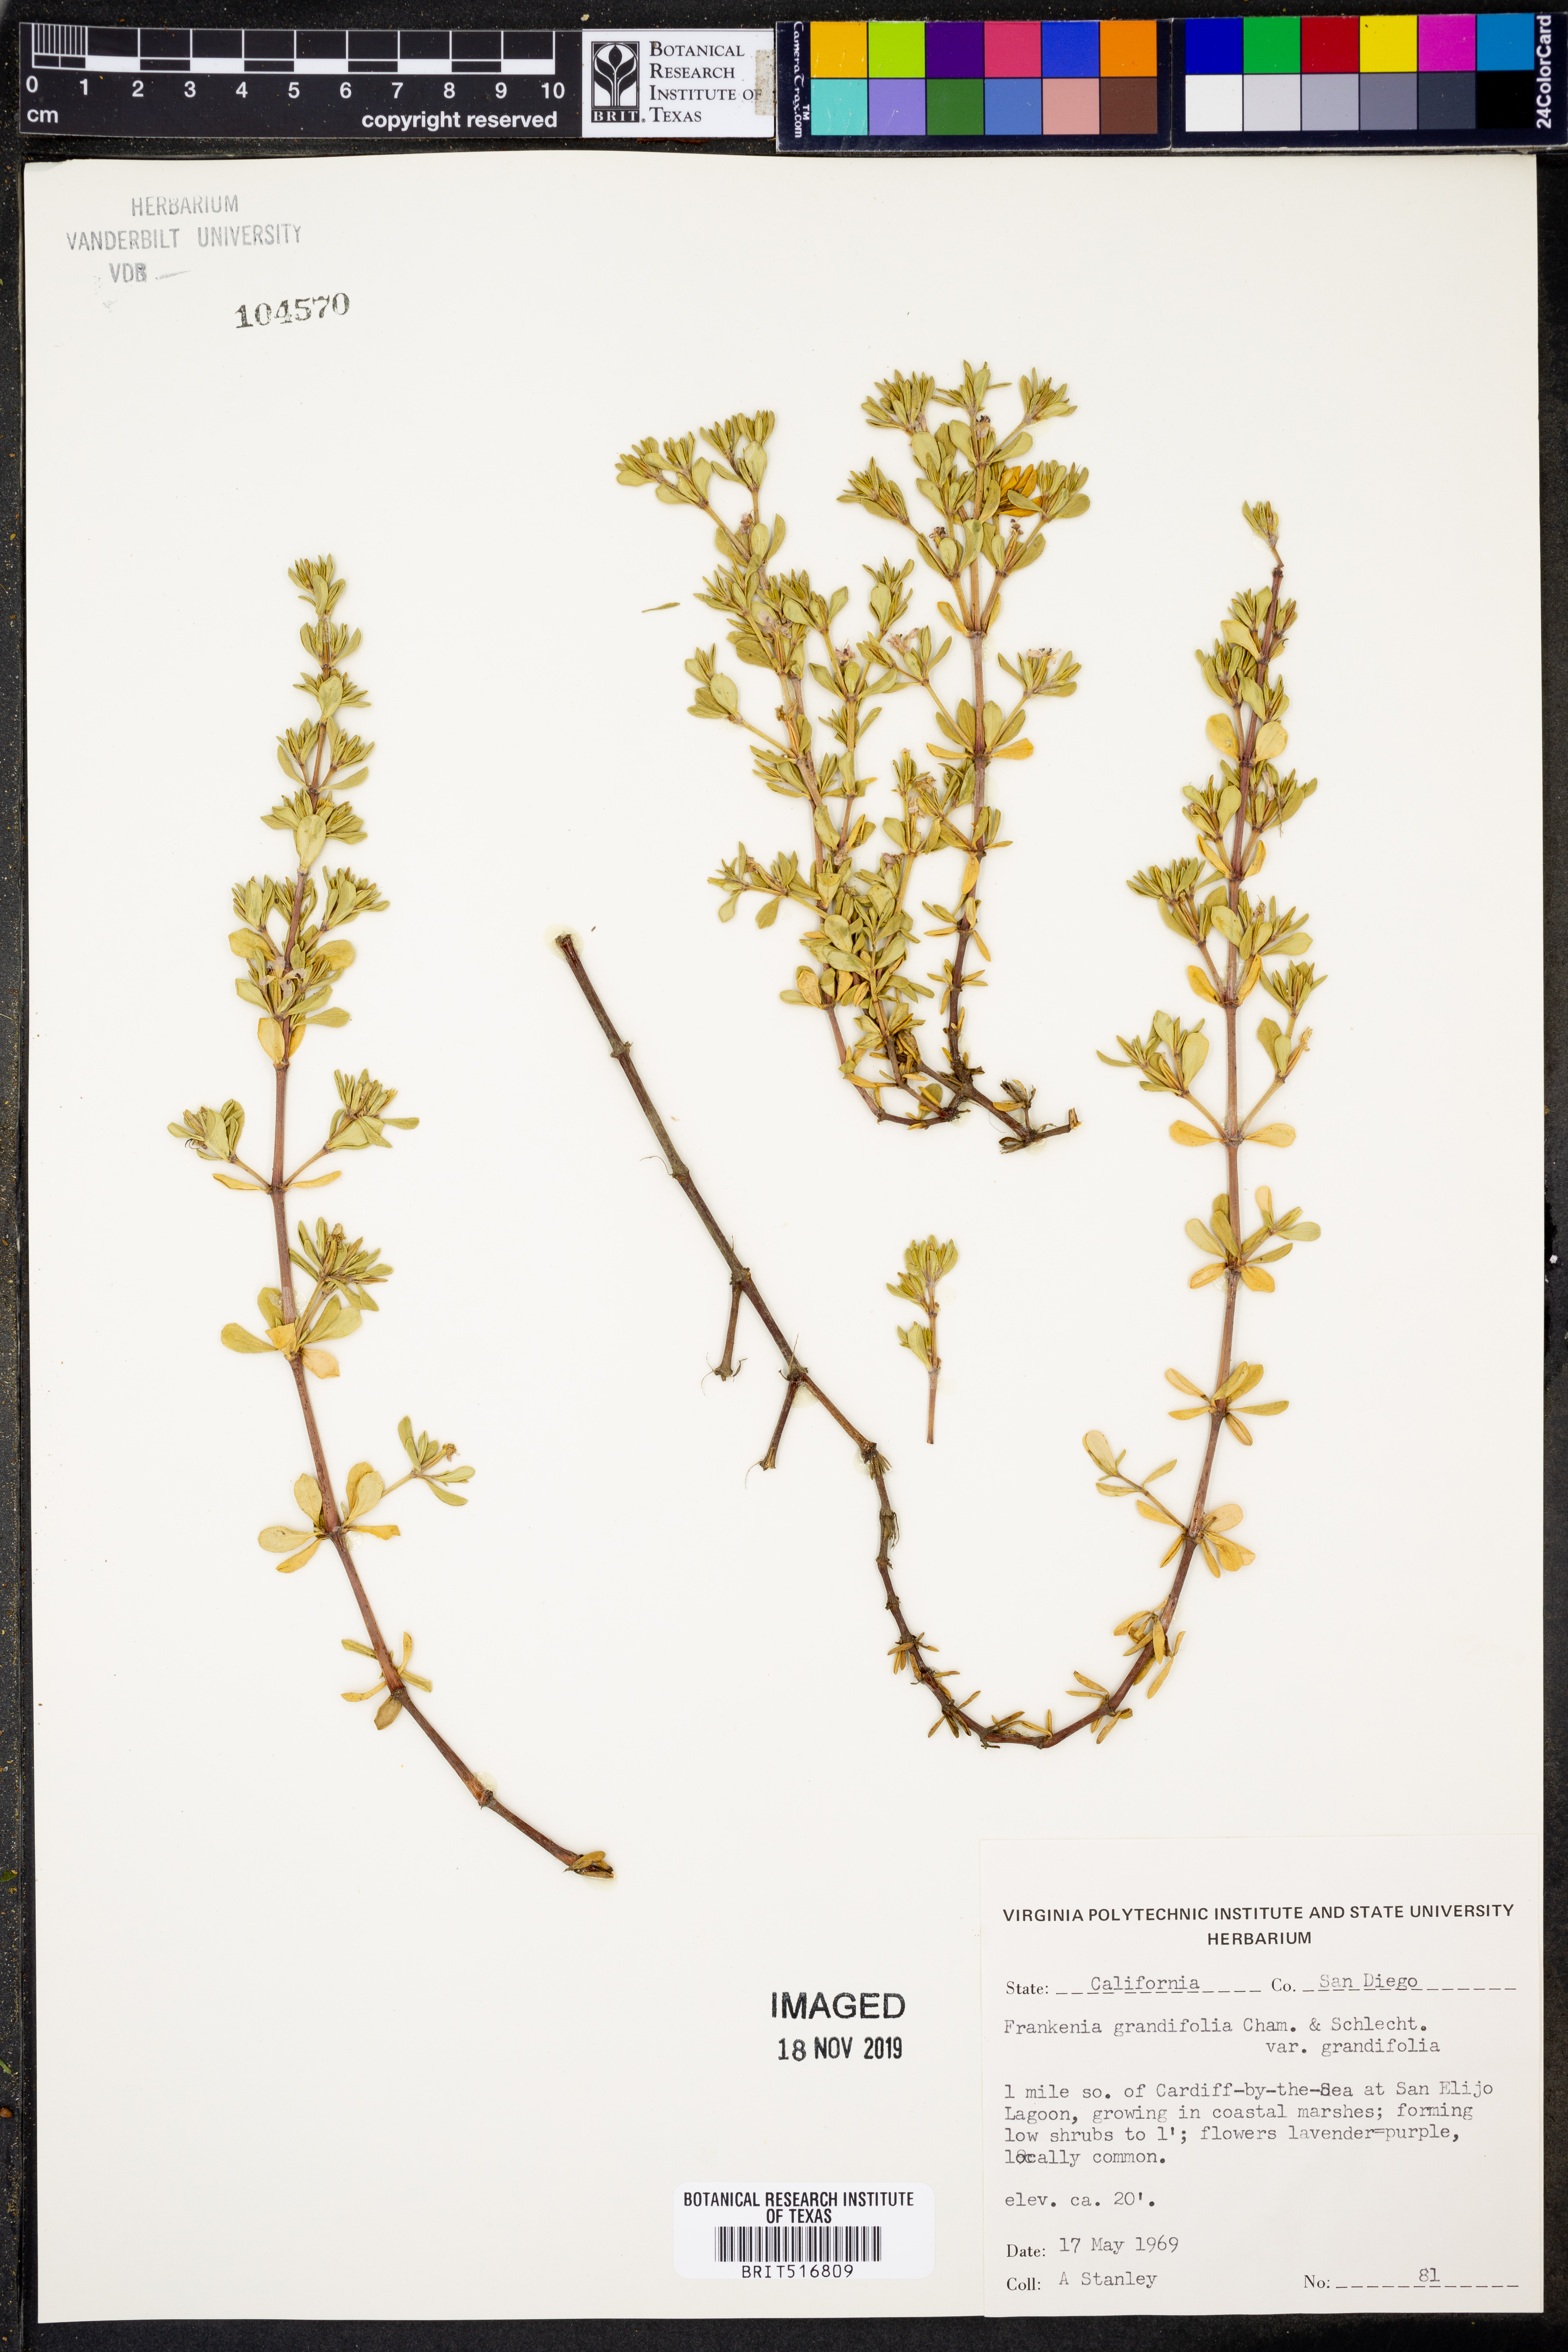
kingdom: Plantae
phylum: Tracheophyta
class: Magnoliopsida
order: Caryophyllales
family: Frankeniaceae
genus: Frankenia
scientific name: Frankenia salina
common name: Alkali seaheath
